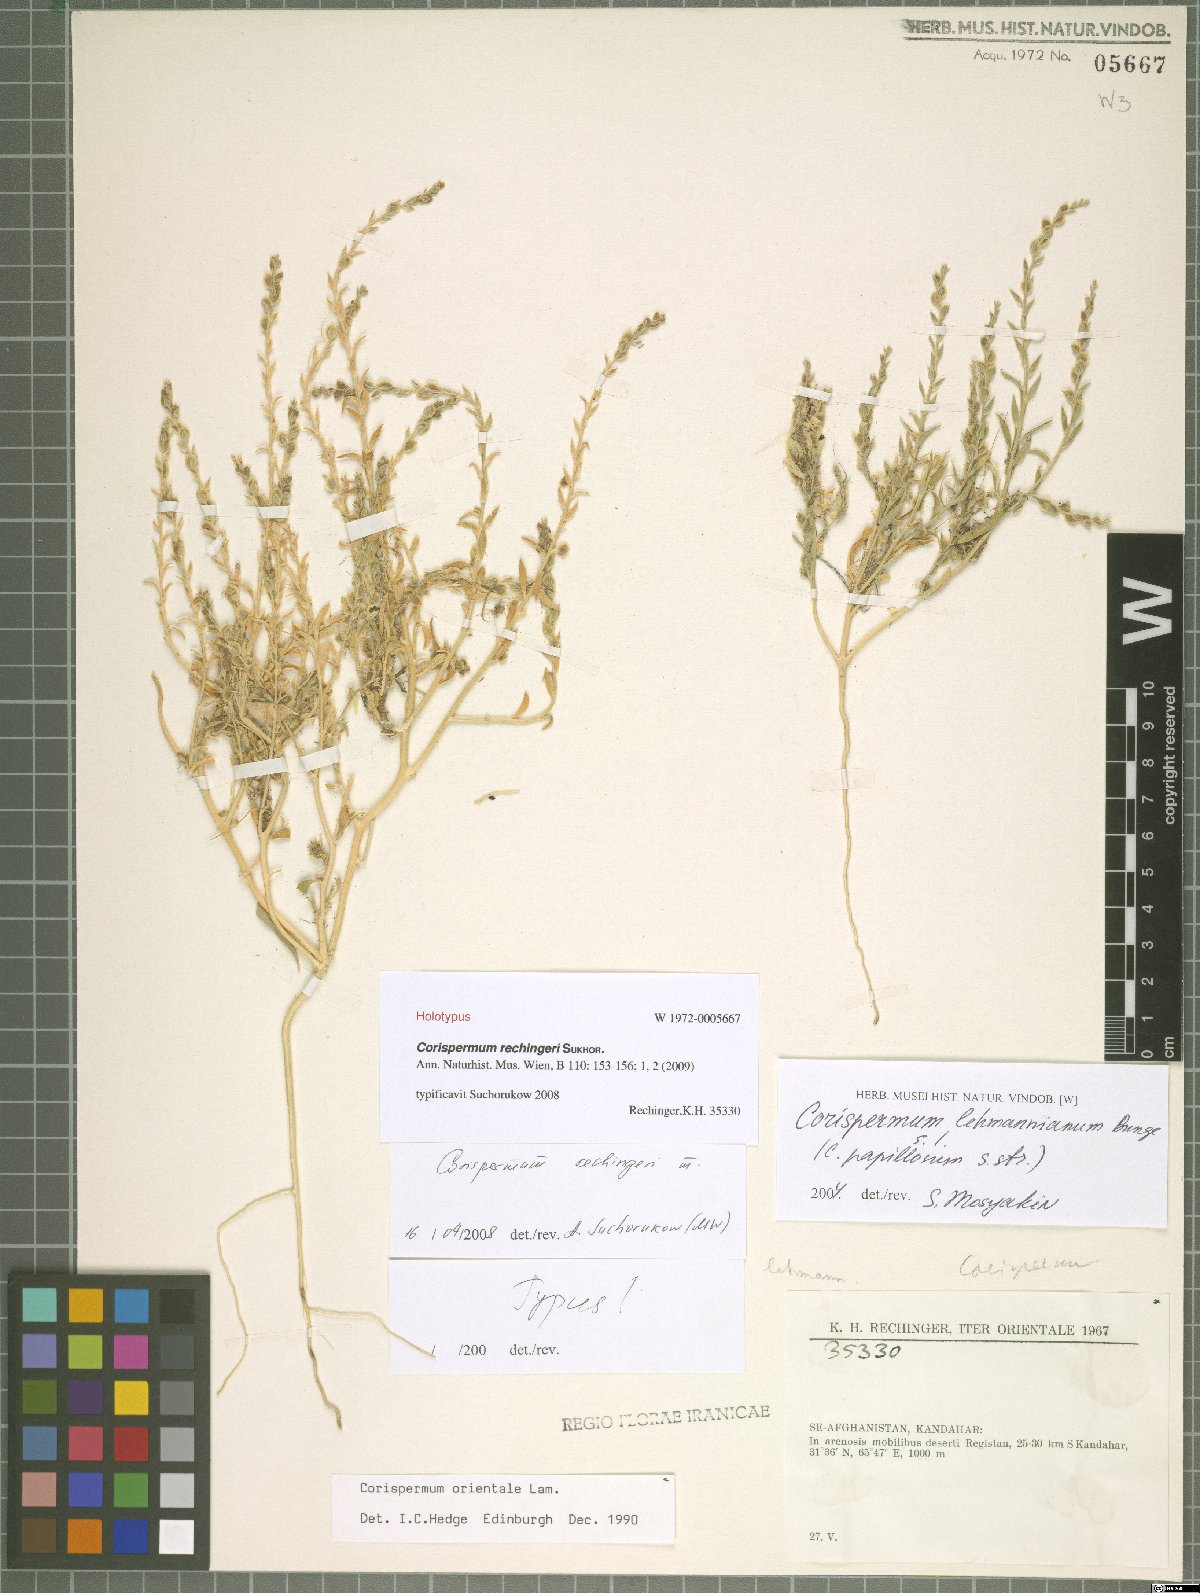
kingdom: Plantae
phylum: Tracheophyta
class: Magnoliopsida
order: Caryophyllales
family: Amaranthaceae
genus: Corispermum
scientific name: Corispermum rechingeri
